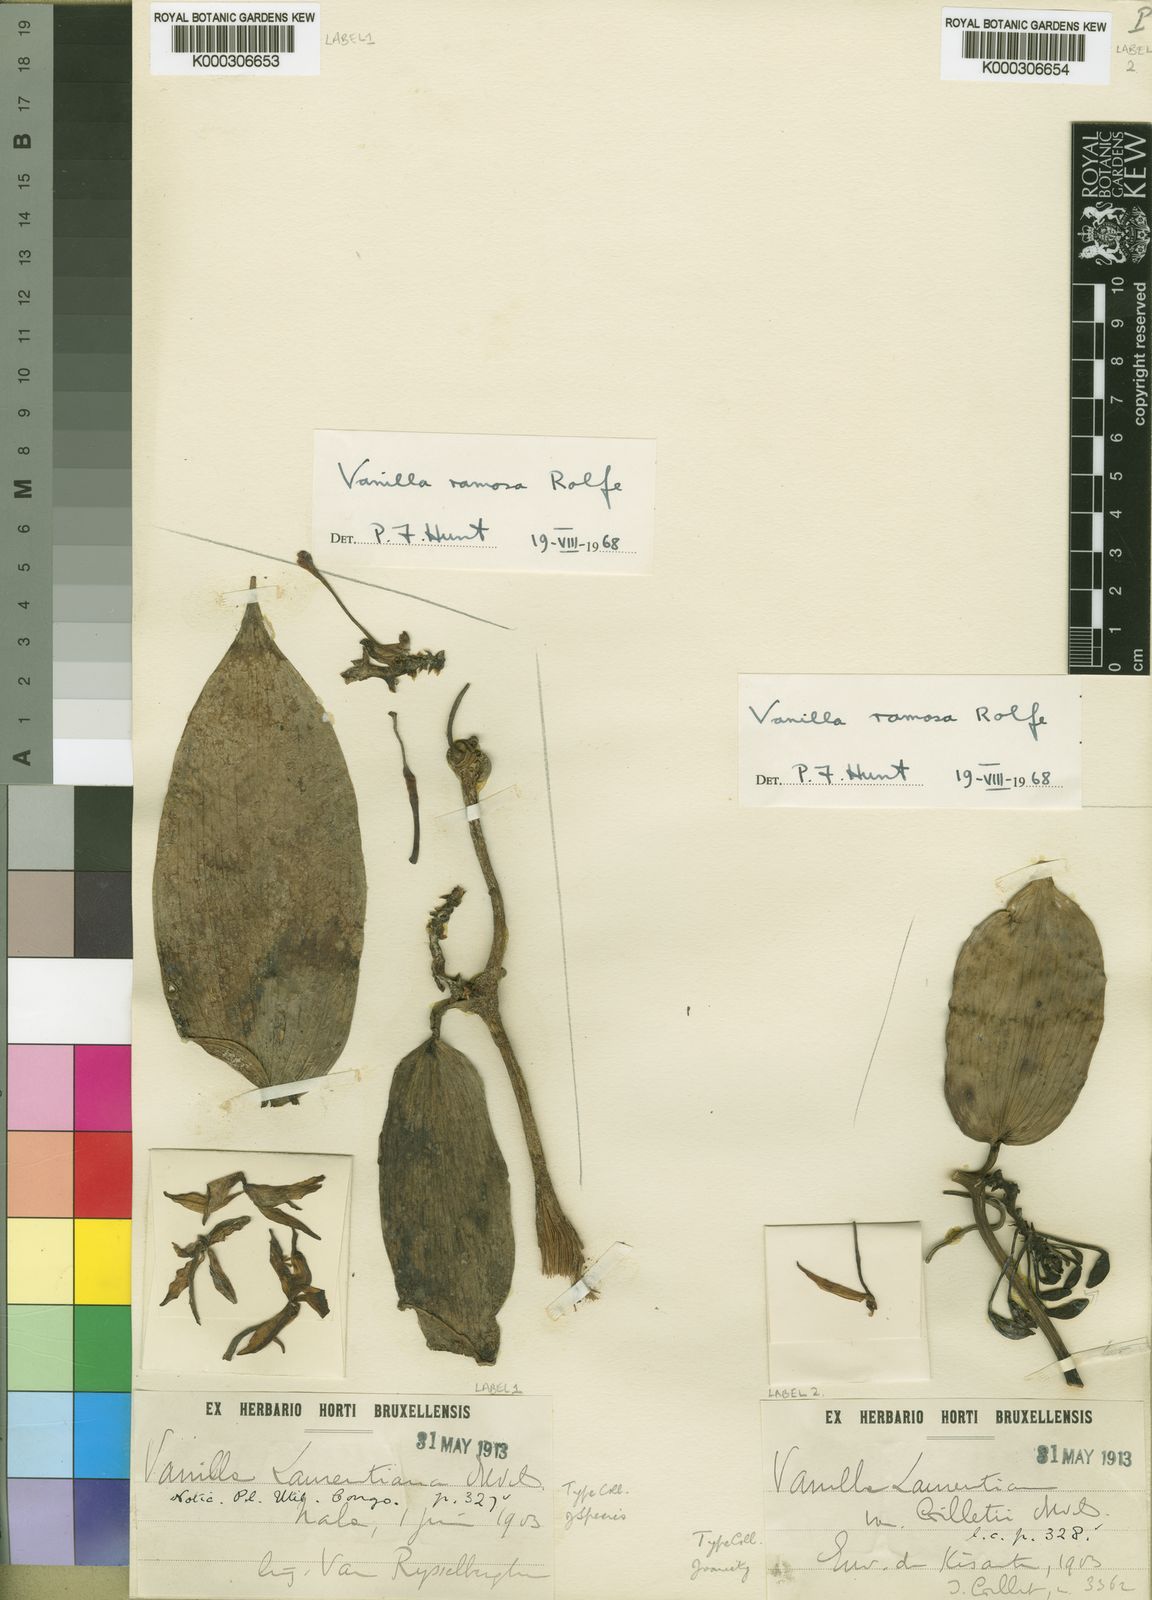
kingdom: Plantae
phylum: Tracheophyta
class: Liliopsida
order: Asparagales
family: Orchidaceae
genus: Vanilla
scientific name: Vanilla ramosa
